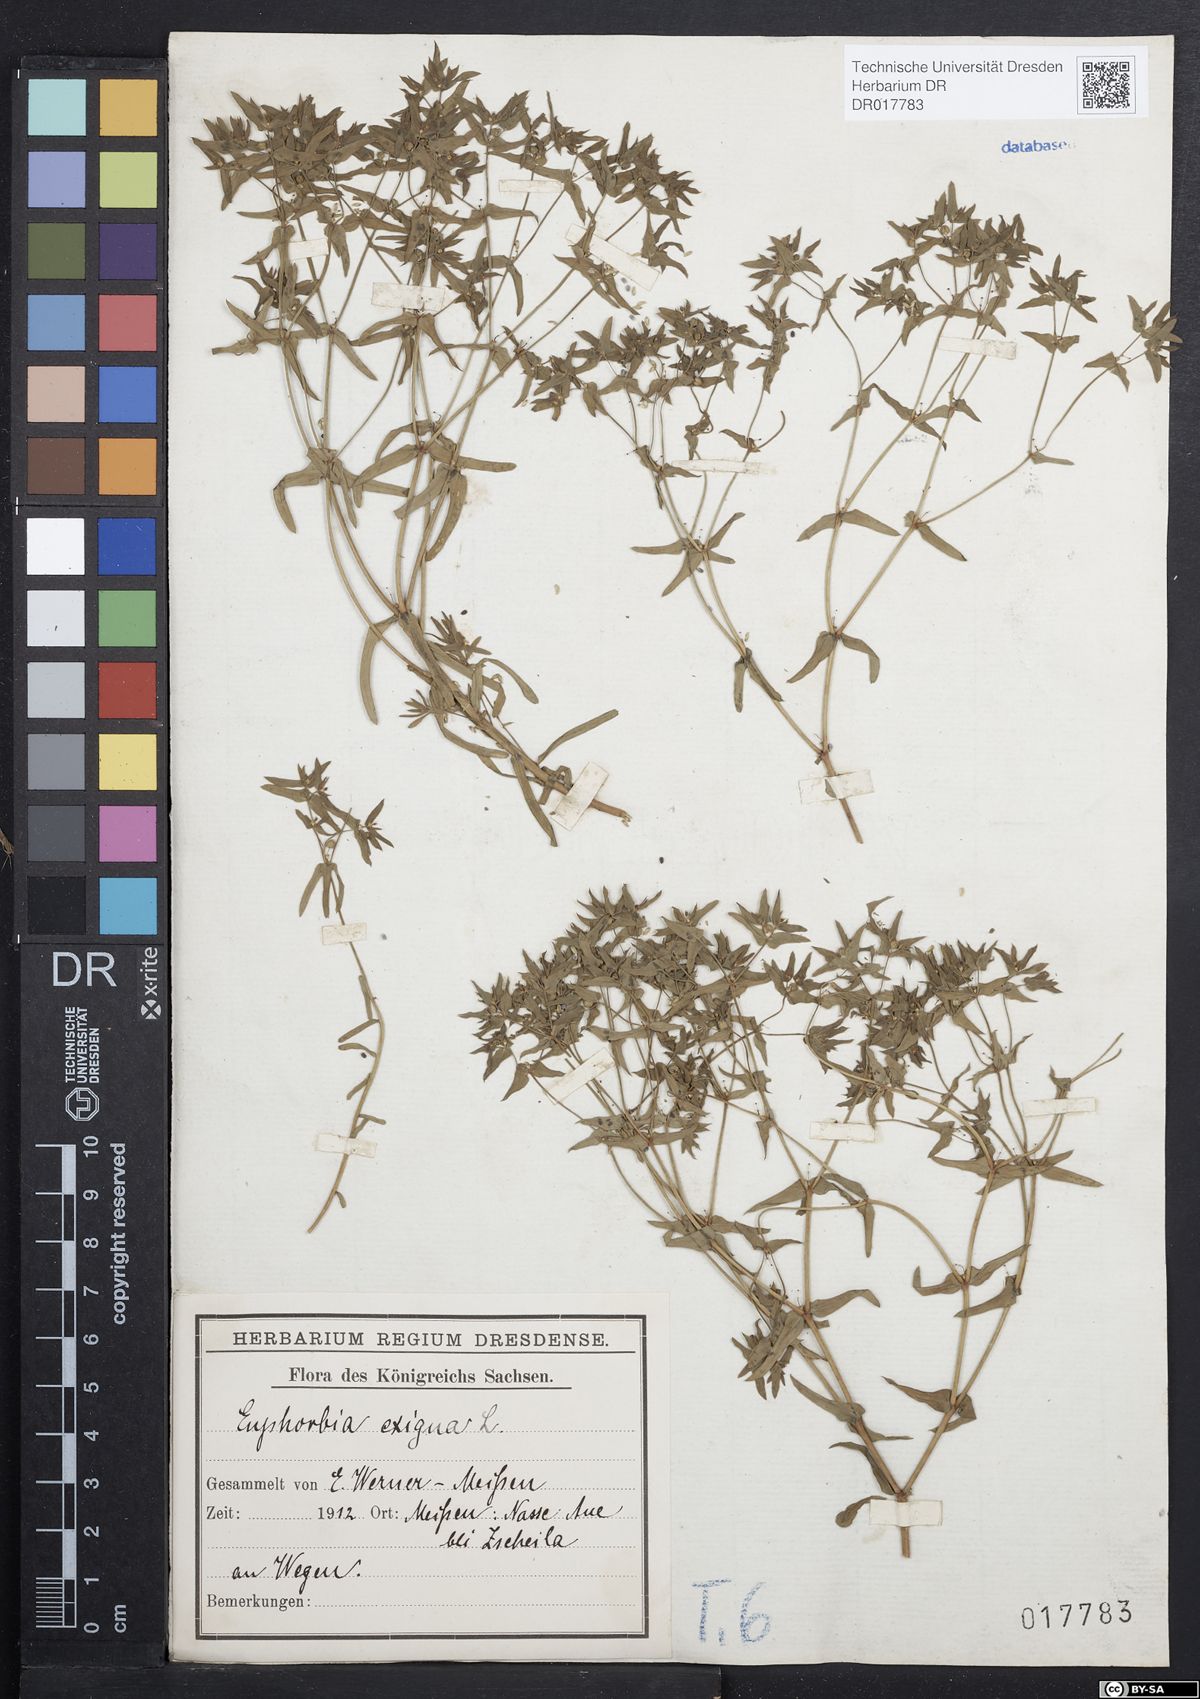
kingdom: Plantae
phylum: Tracheophyta
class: Magnoliopsida
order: Malpighiales
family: Euphorbiaceae
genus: Euphorbia
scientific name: Euphorbia exigua
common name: Dwarf spurge
